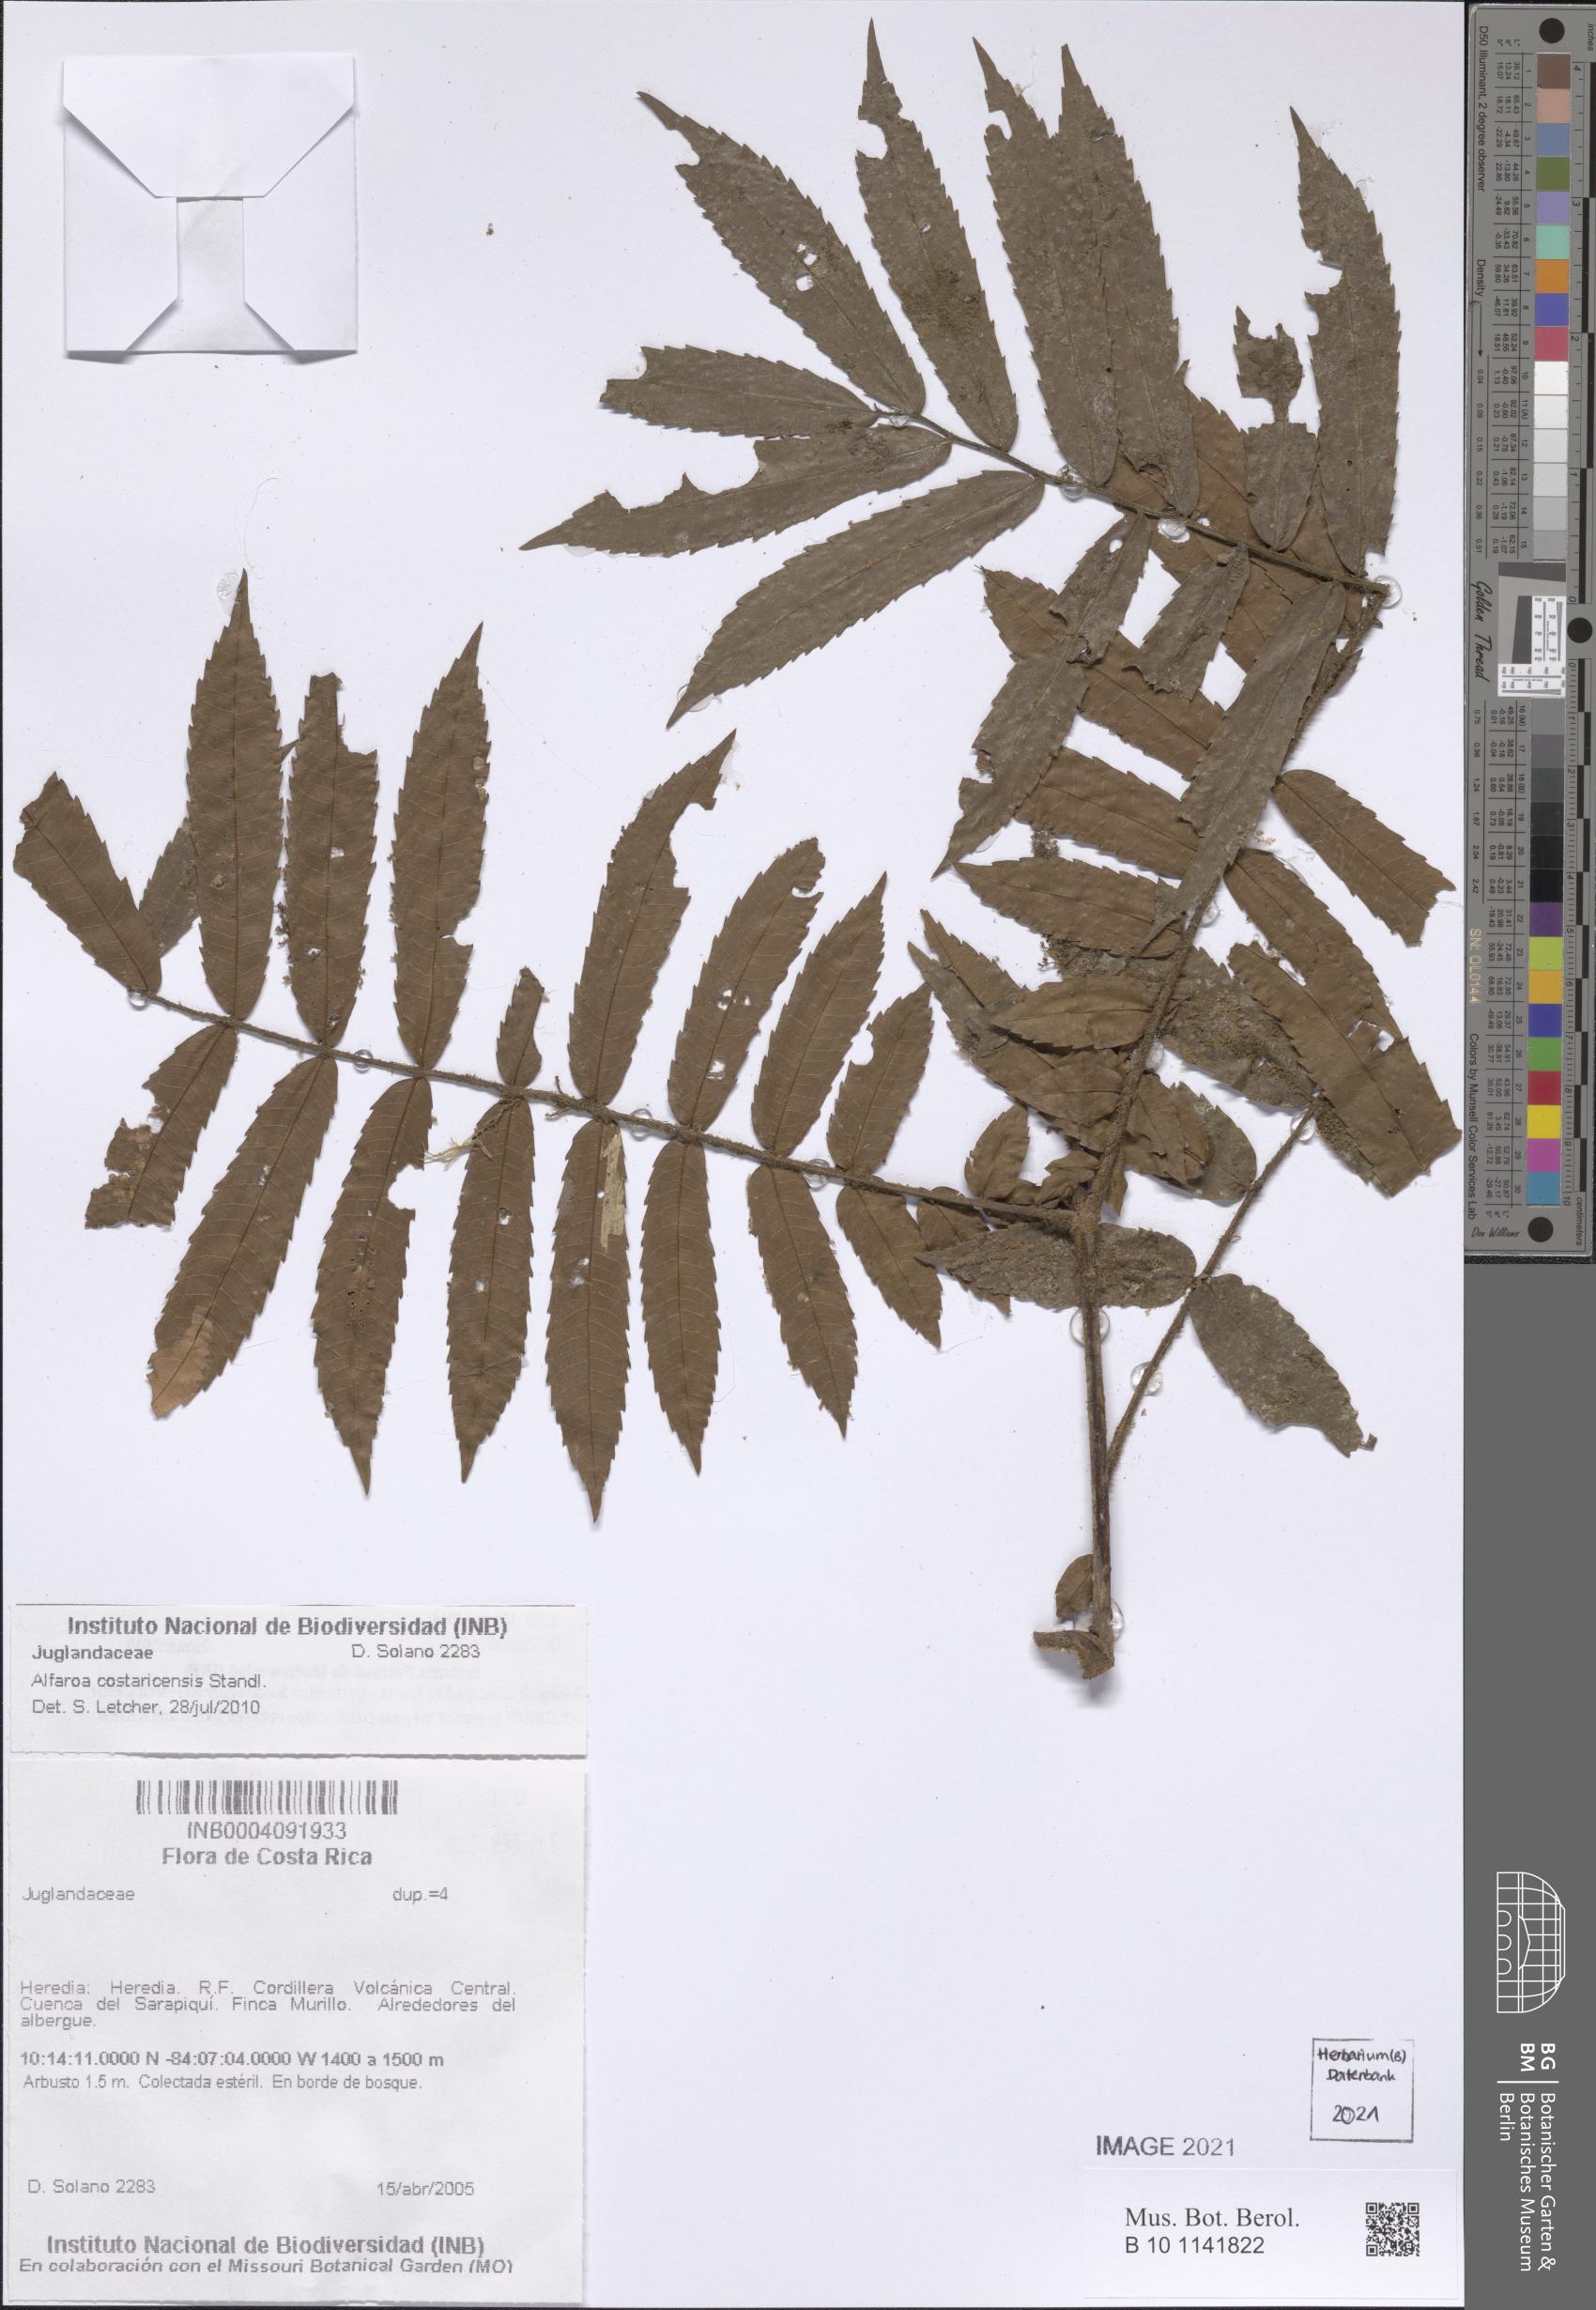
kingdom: Plantae
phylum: Tracheophyta
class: Magnoliopsida
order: Fagales
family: Juglandaceae
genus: Alfaroa
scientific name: Alfaroa costaricensis
